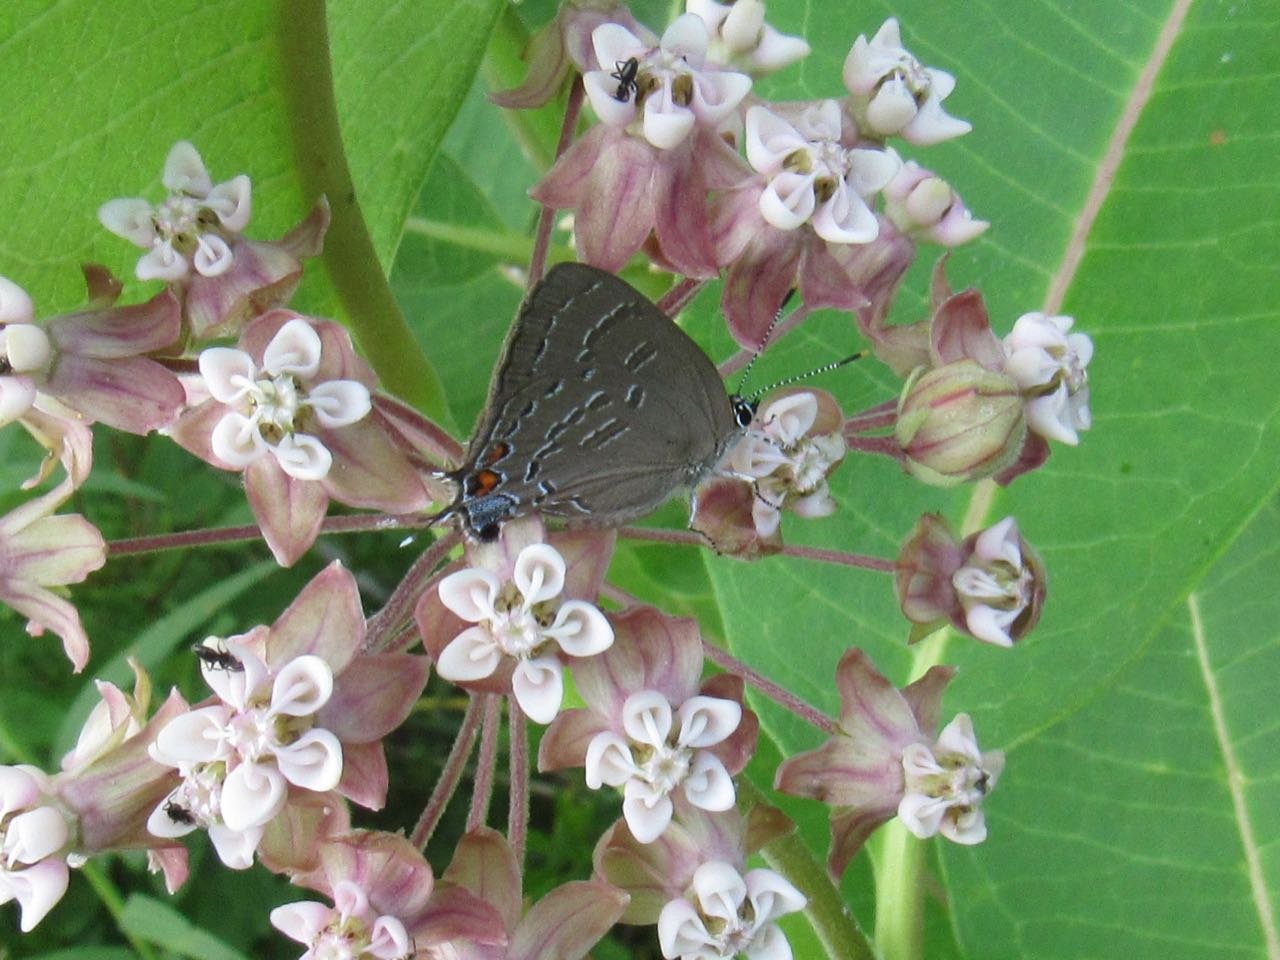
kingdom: Animalia
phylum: Arthropoda
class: Insecta
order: Lepidoptera
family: Lycaenidae
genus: Satyrium
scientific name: Satyrium calanus
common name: Banded Hairstreak
